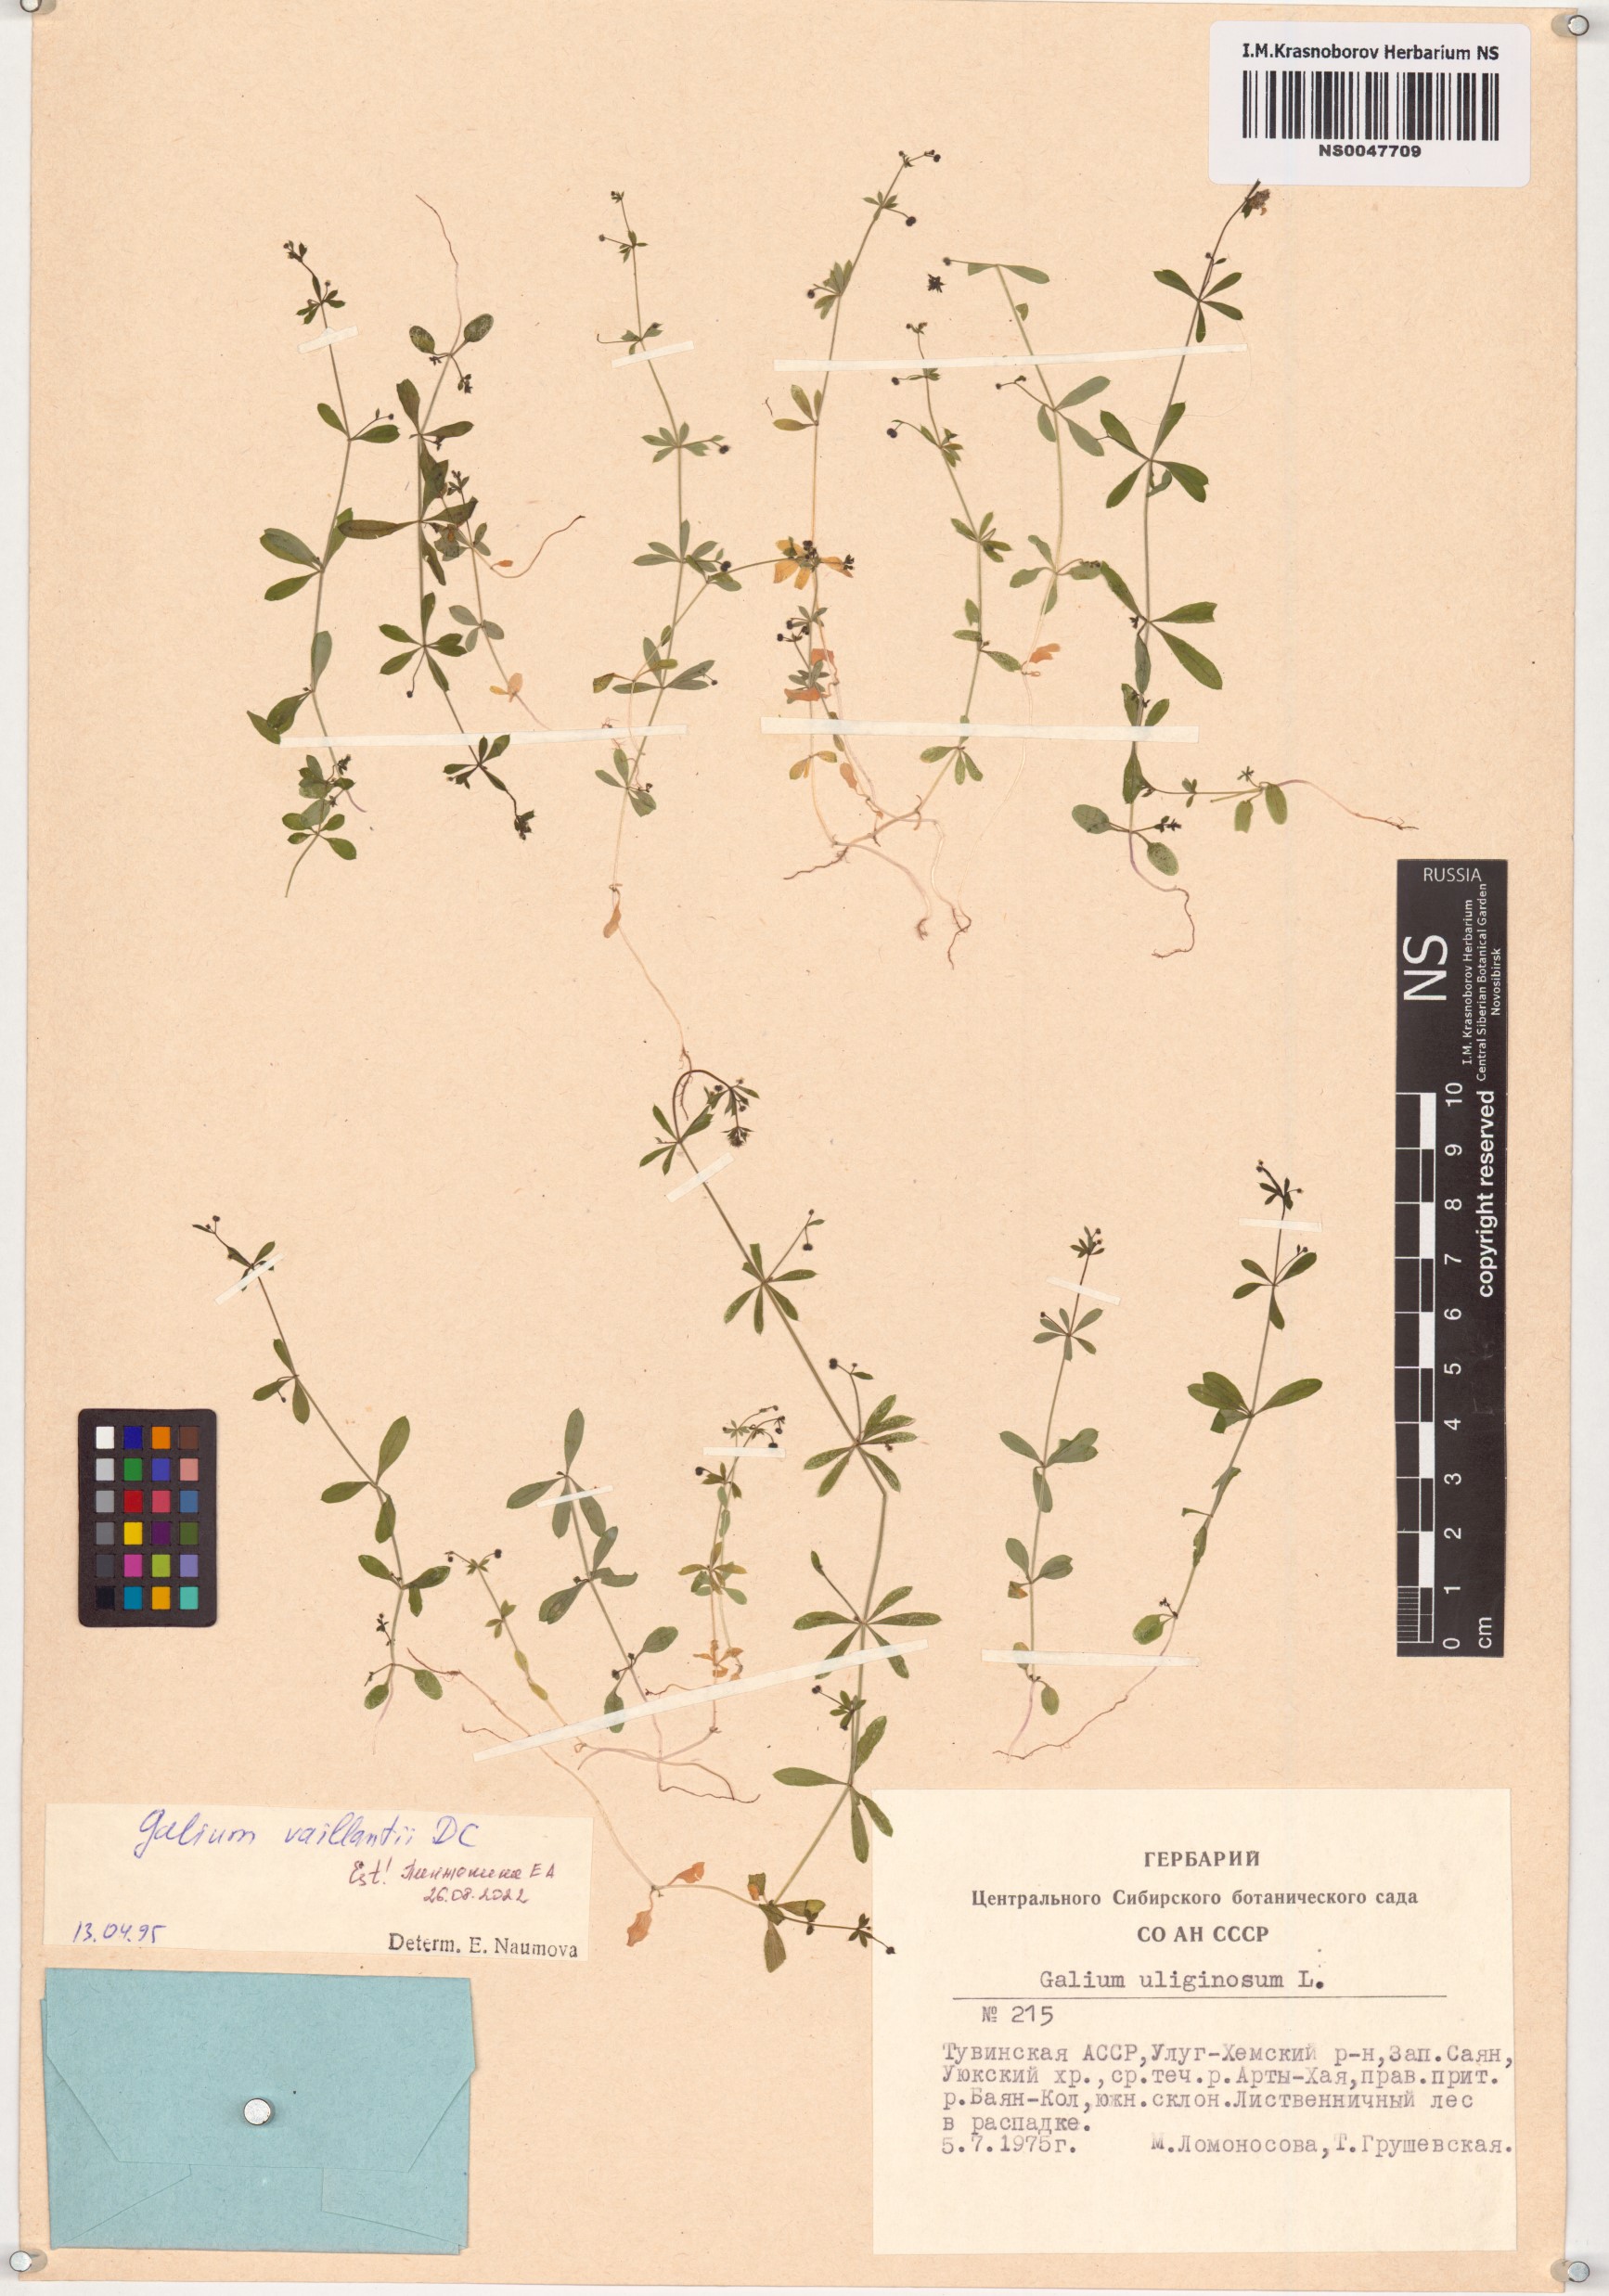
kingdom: Plantae
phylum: Tracheophyta
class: Magnoliopsida
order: Gentianales
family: Rubiaceae
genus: Galium
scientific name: Galium spurium
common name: False cleavers
